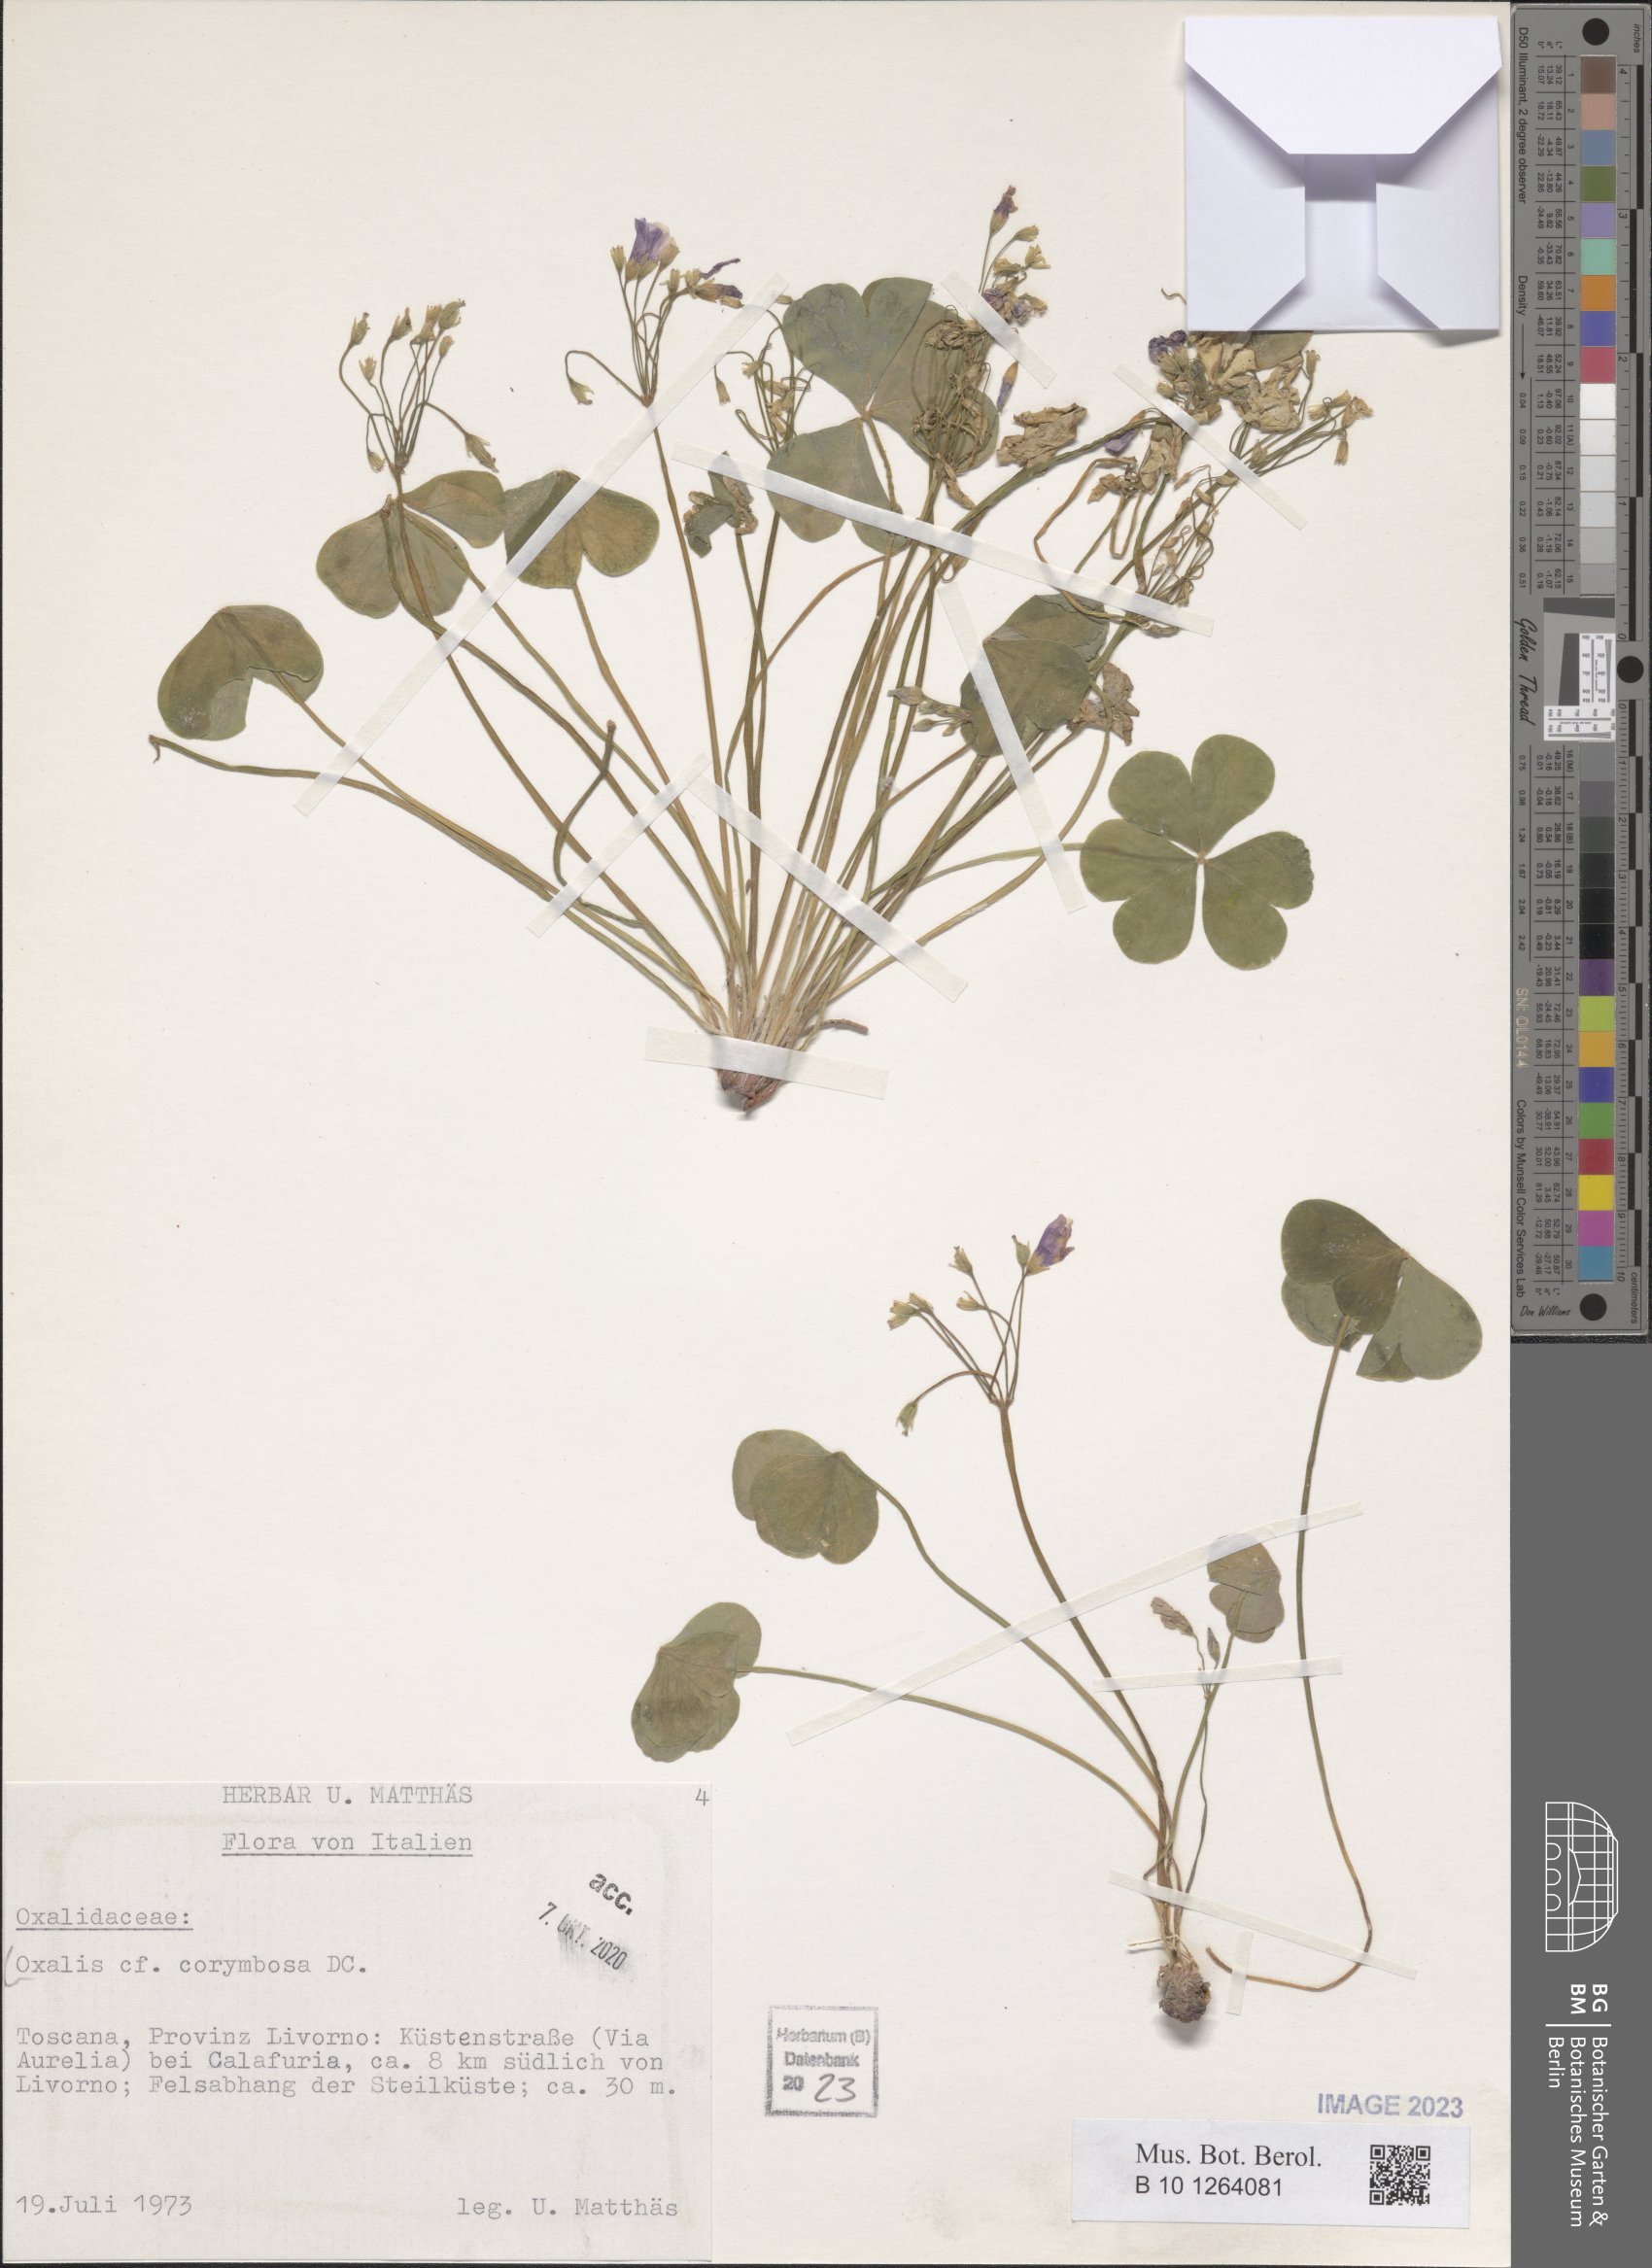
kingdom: Plantae
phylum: Tracheophyta
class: Magnoliopsida
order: Oxalidales
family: Oxalidaceae
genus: Oxalis
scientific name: Oxalis debilis
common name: Large-flowered pink-sorrel
